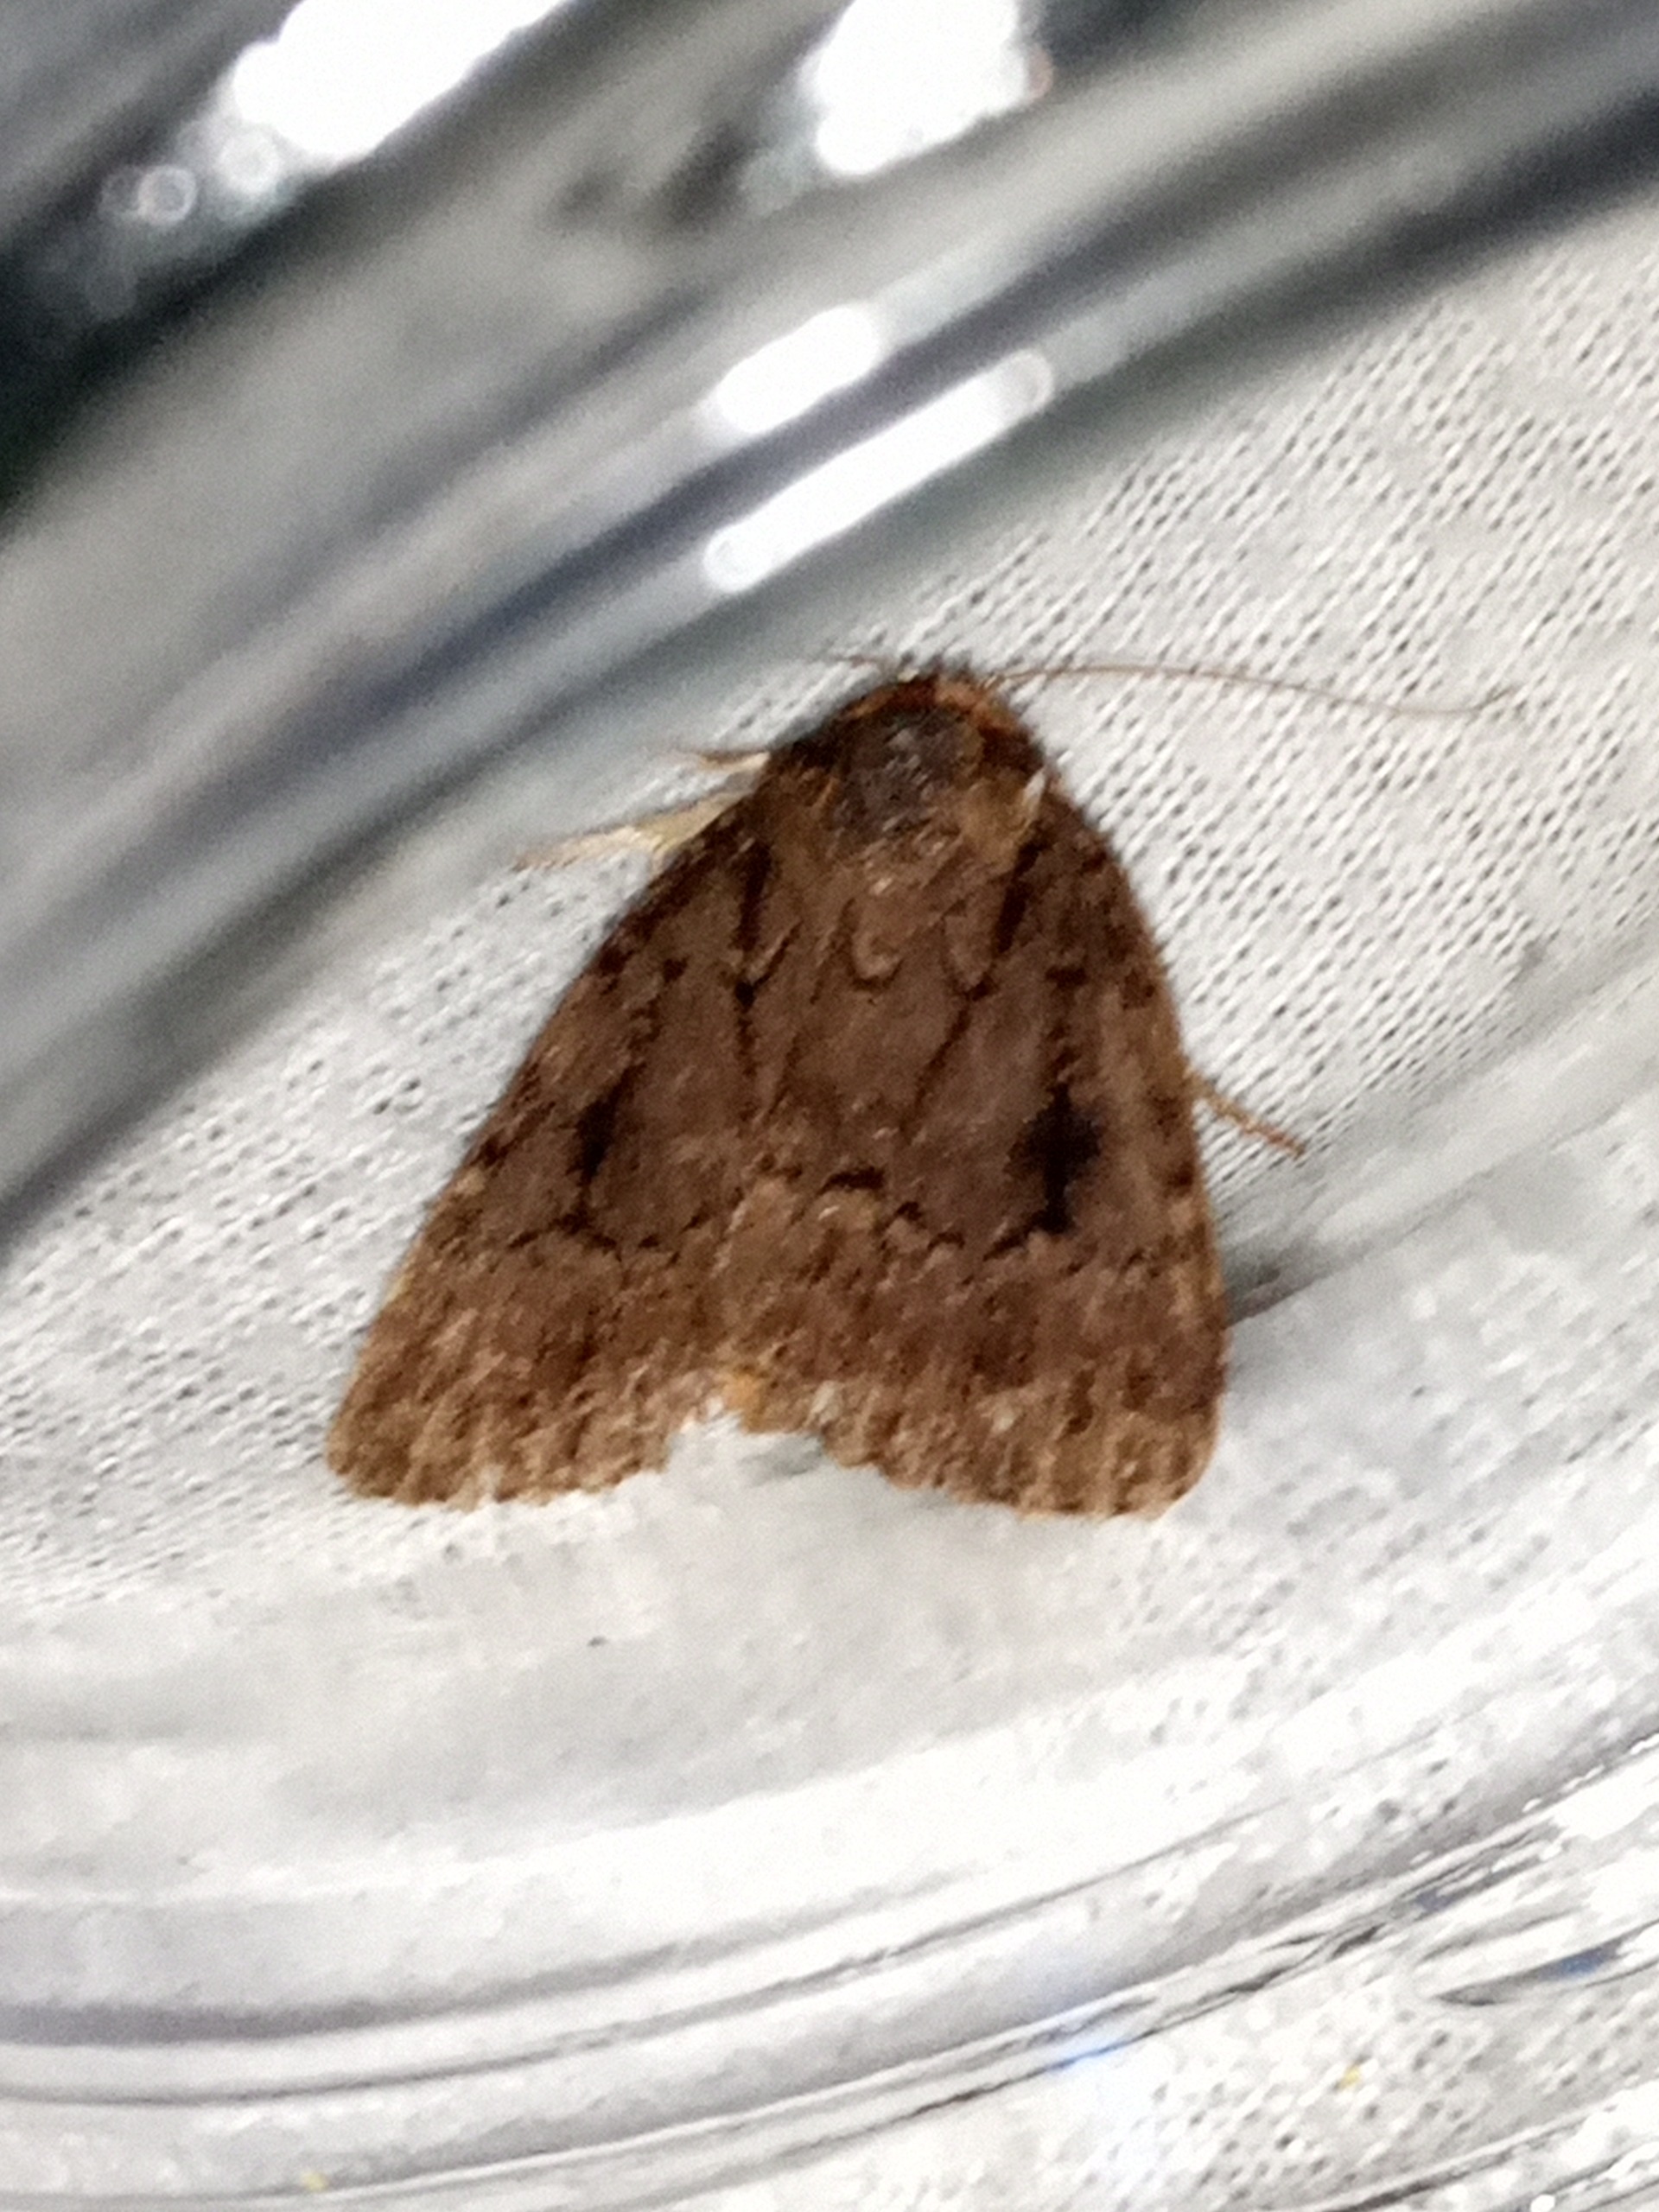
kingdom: Animalia
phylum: Arthropoda
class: Insecta
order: Lepidoptera
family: Noctuidae
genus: Amphipyra
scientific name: Amphipyra pyramidea
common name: Pyramideugle
